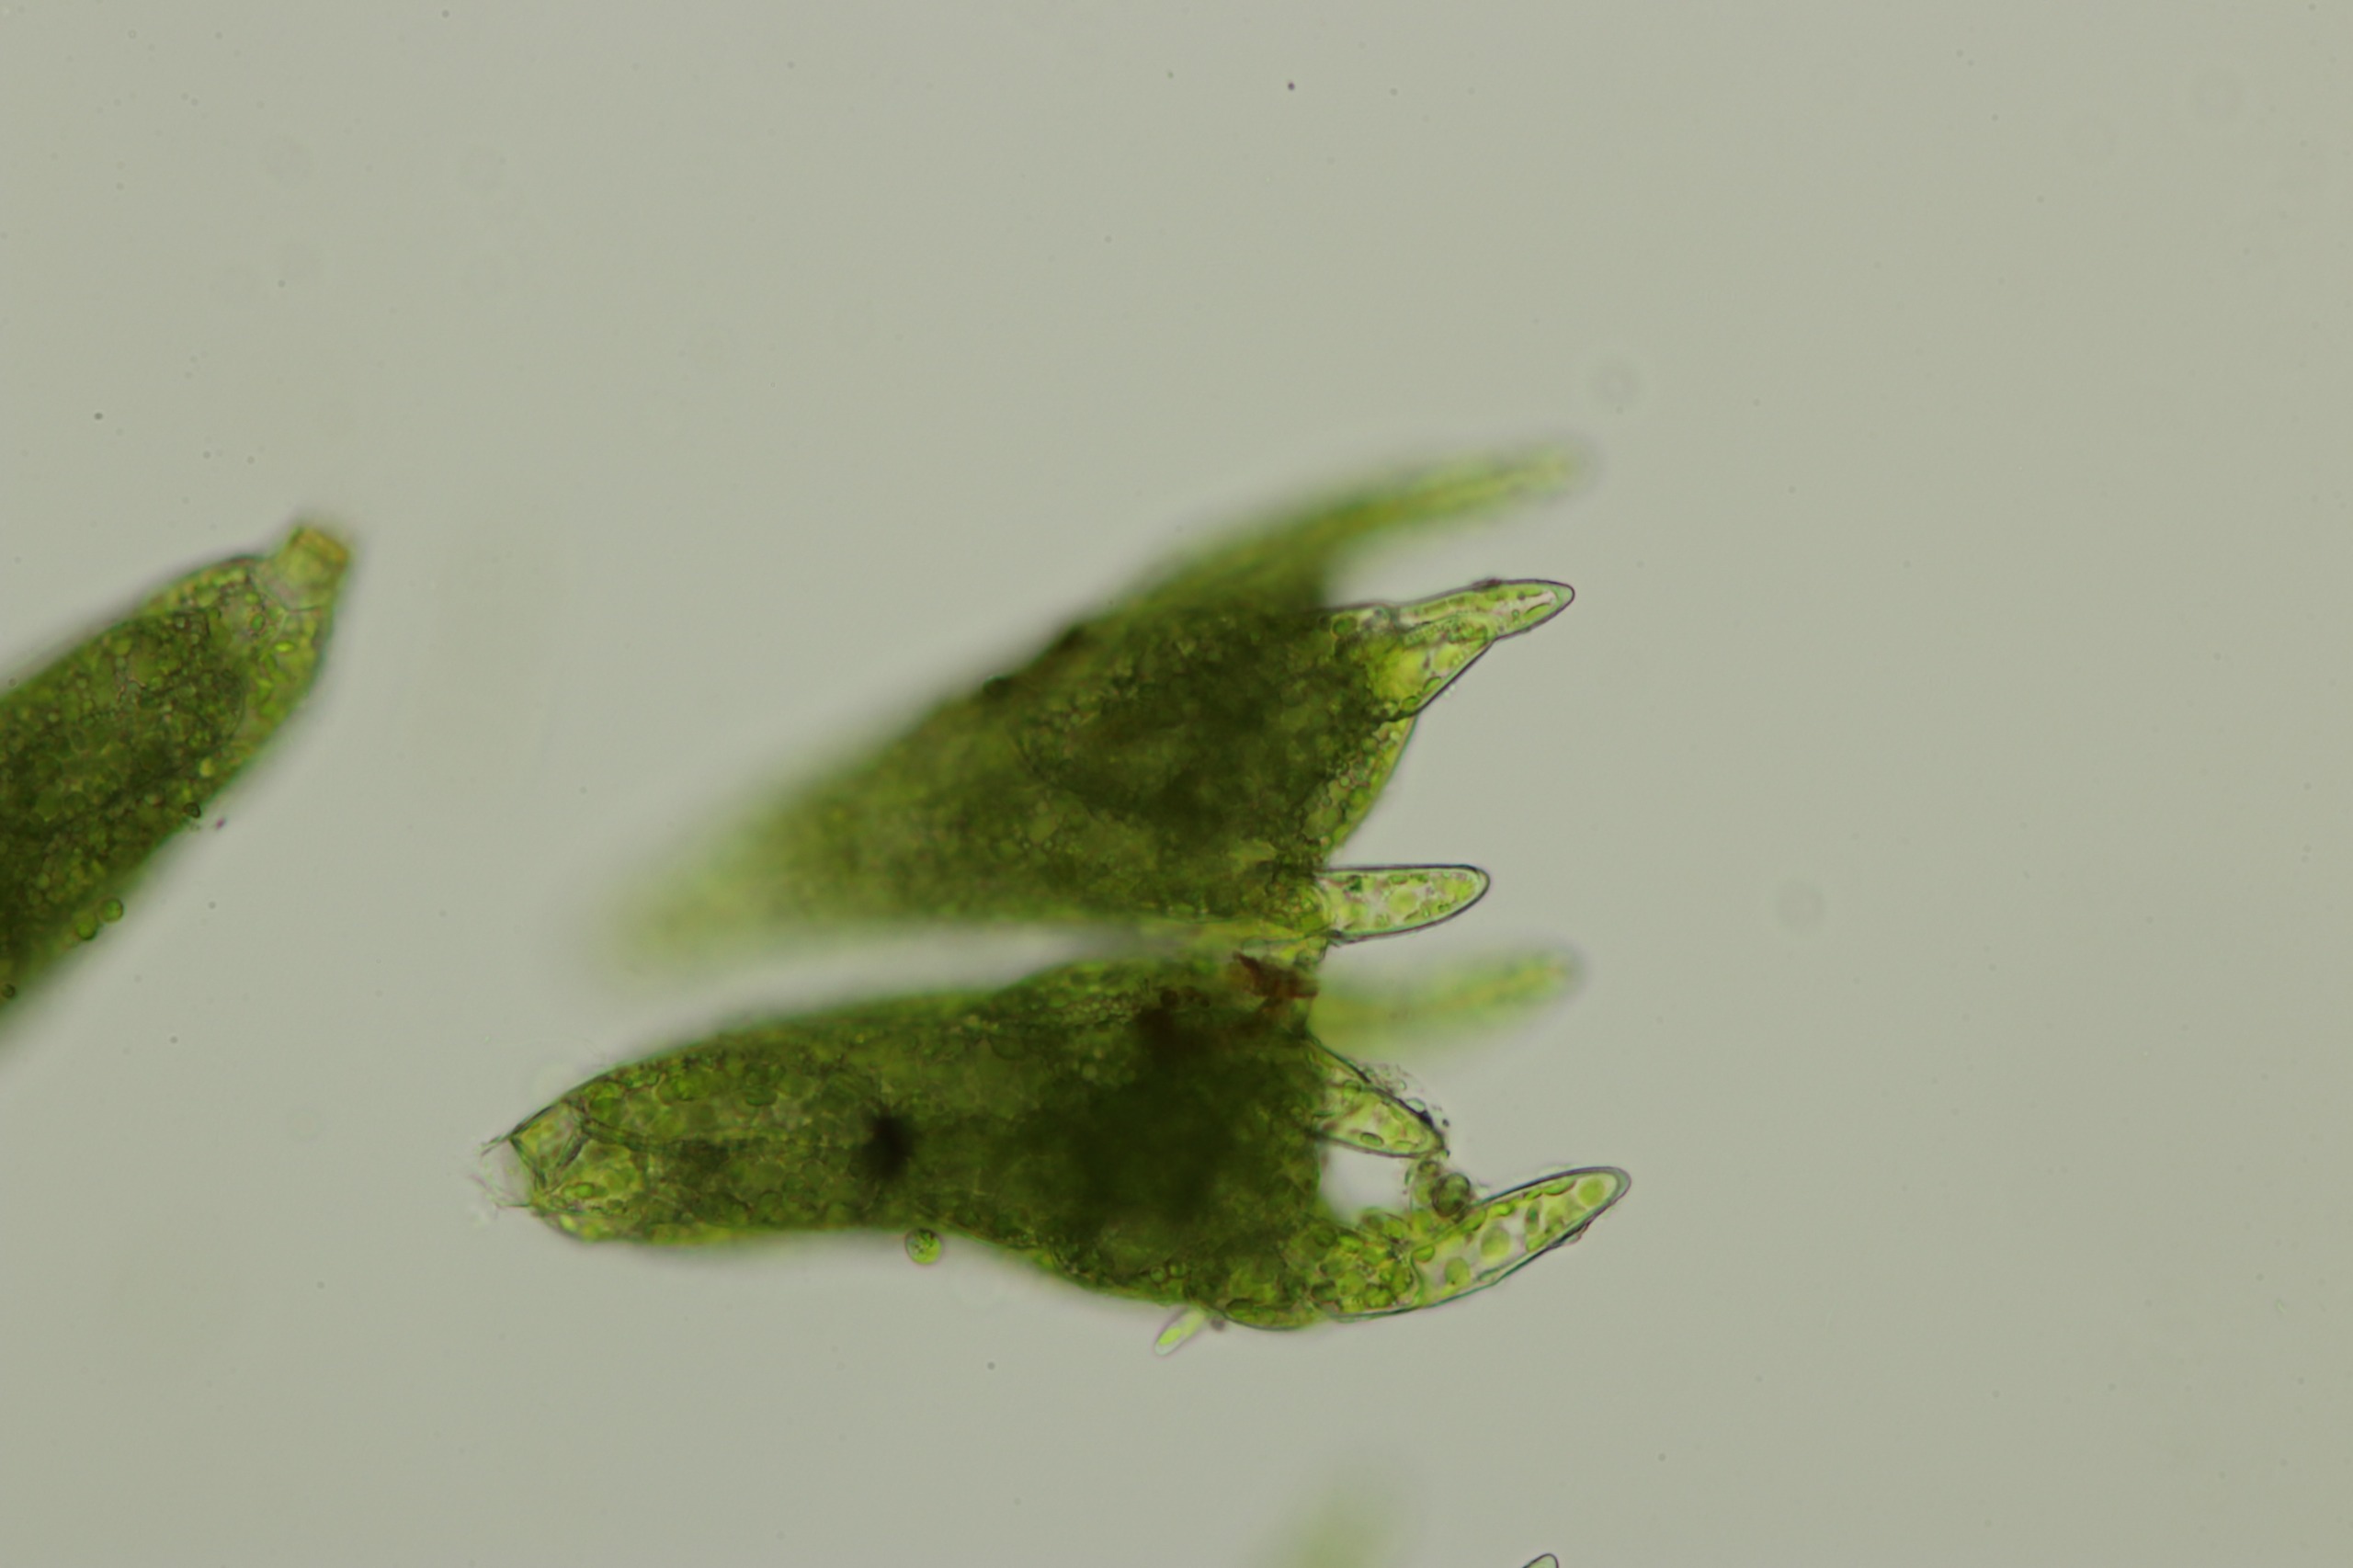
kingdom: Plantae
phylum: Bryophyta
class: Bryopsida
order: Bryales
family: Mniaceae
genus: Pohlia
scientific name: Pohlia annotina
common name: Blød nikkemos
